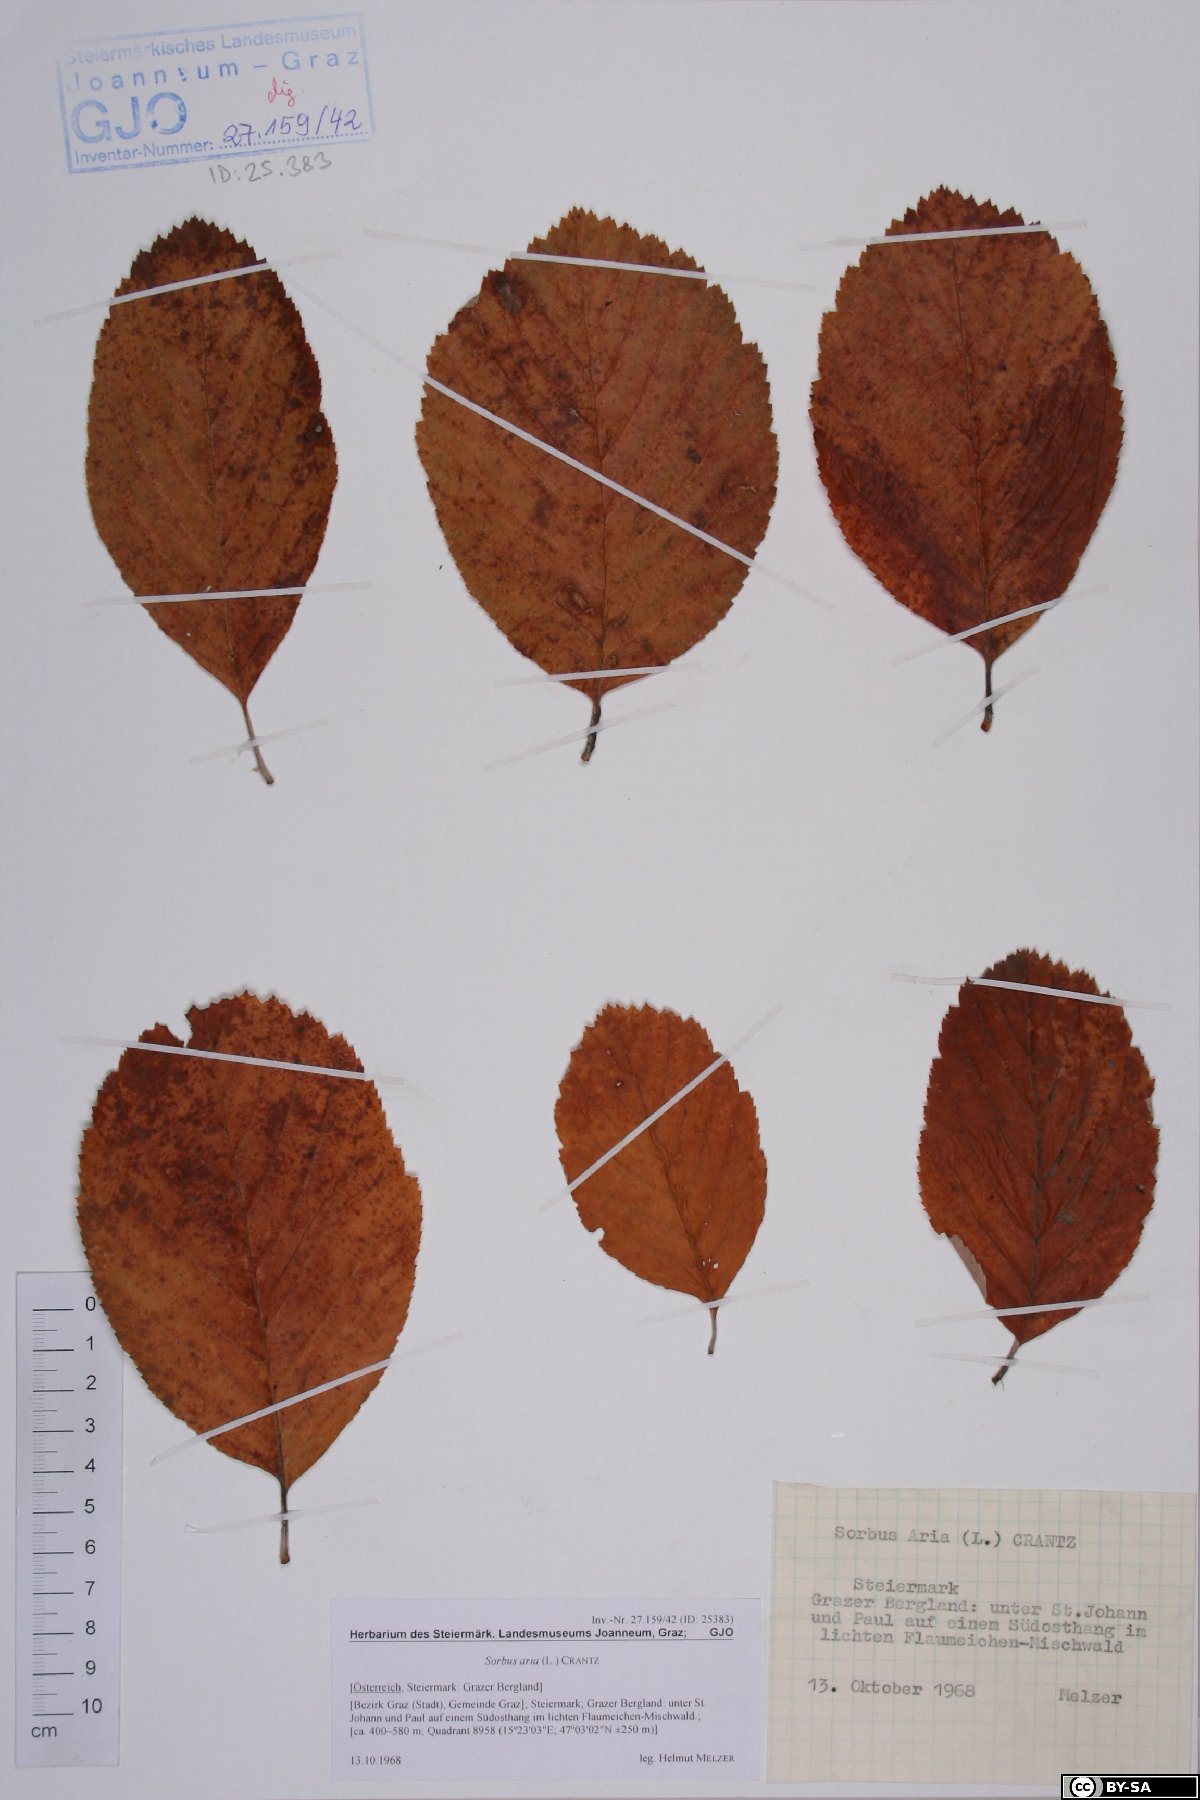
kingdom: Plantae
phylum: Tracheophyta
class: Magnoliopsida
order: Rosales
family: Rosaceae
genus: Aria
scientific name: Aria edulis
